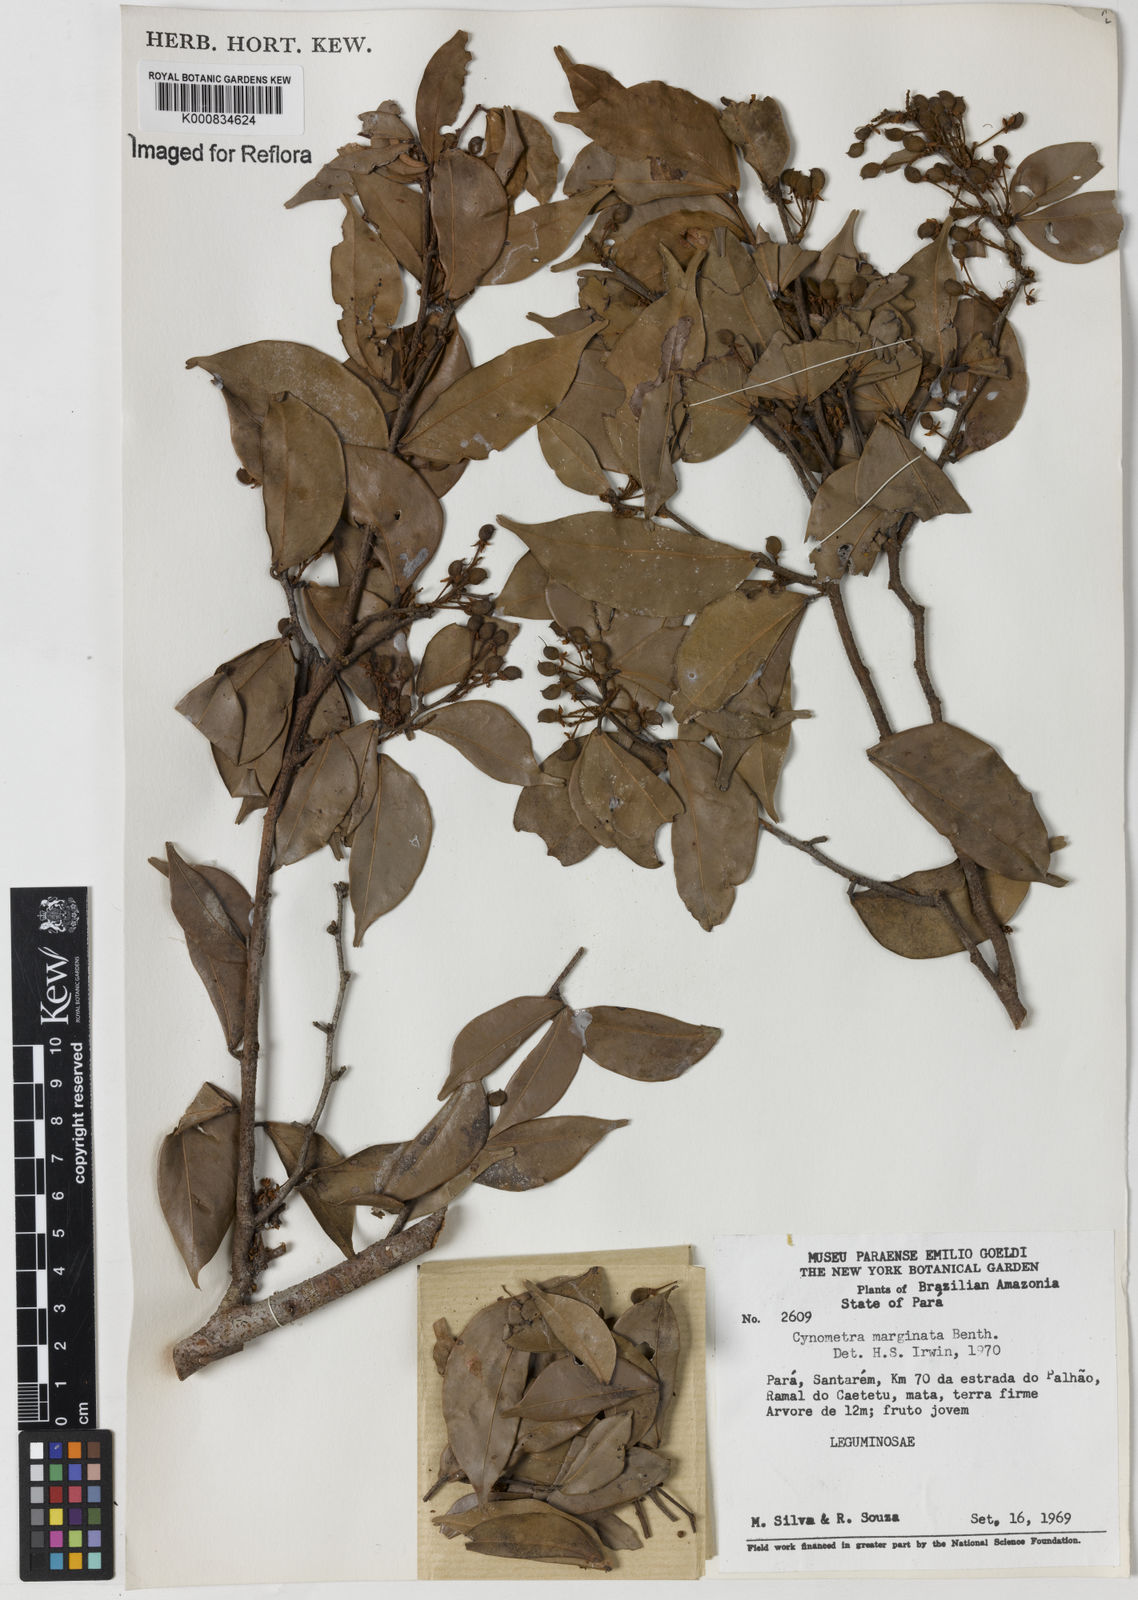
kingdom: Plantae
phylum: Tracheophyta
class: Magnoliopsida
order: Fabales
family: Fabaceae
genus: Cynometra
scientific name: Cynometra marginata
